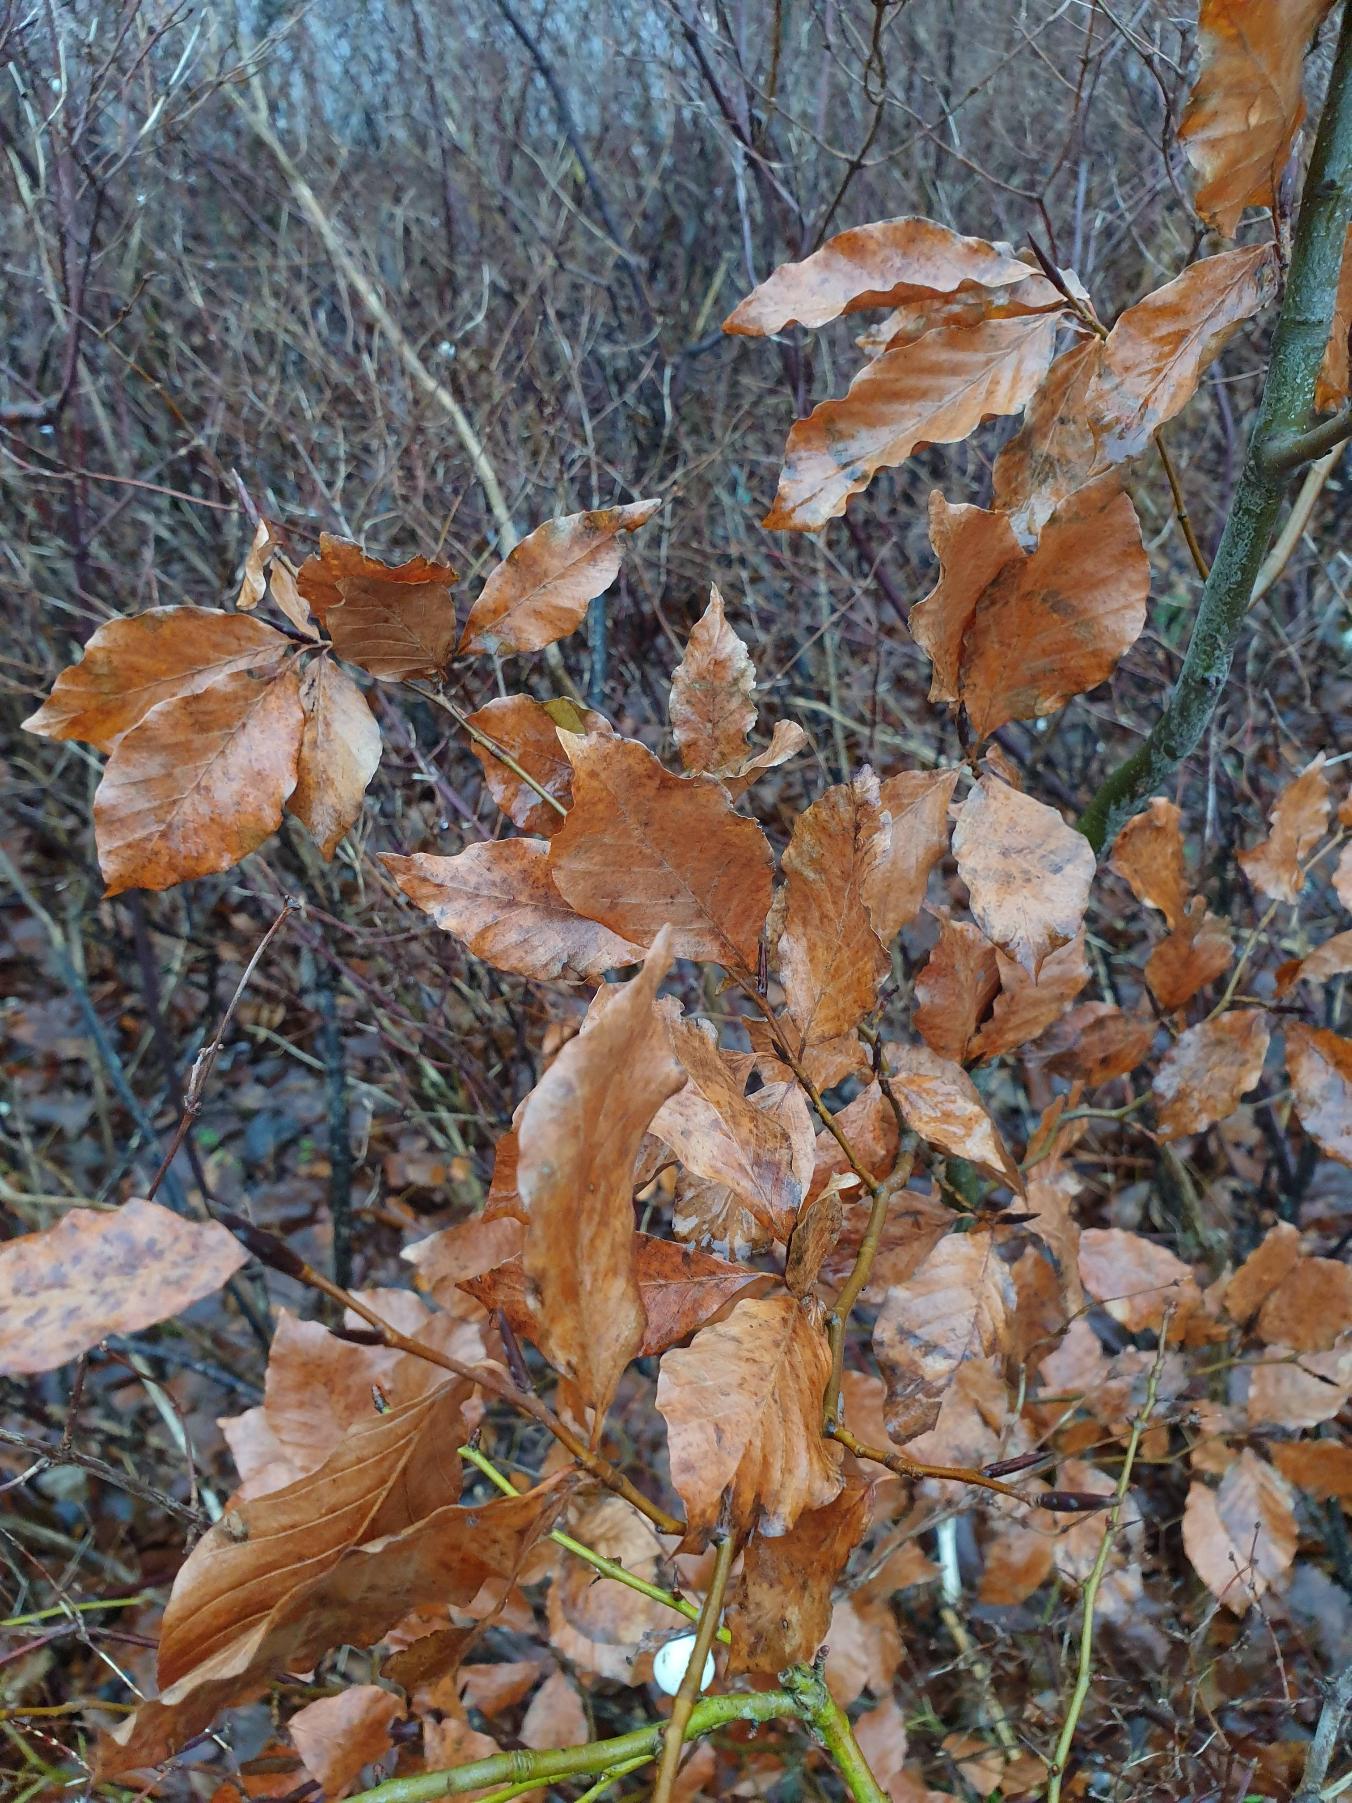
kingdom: Plantae
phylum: Tracheophyta
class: Magnoliopsida
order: Fagales
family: Fagaceae
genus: Fagus
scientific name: Fagus sylvatica
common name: Bøg
